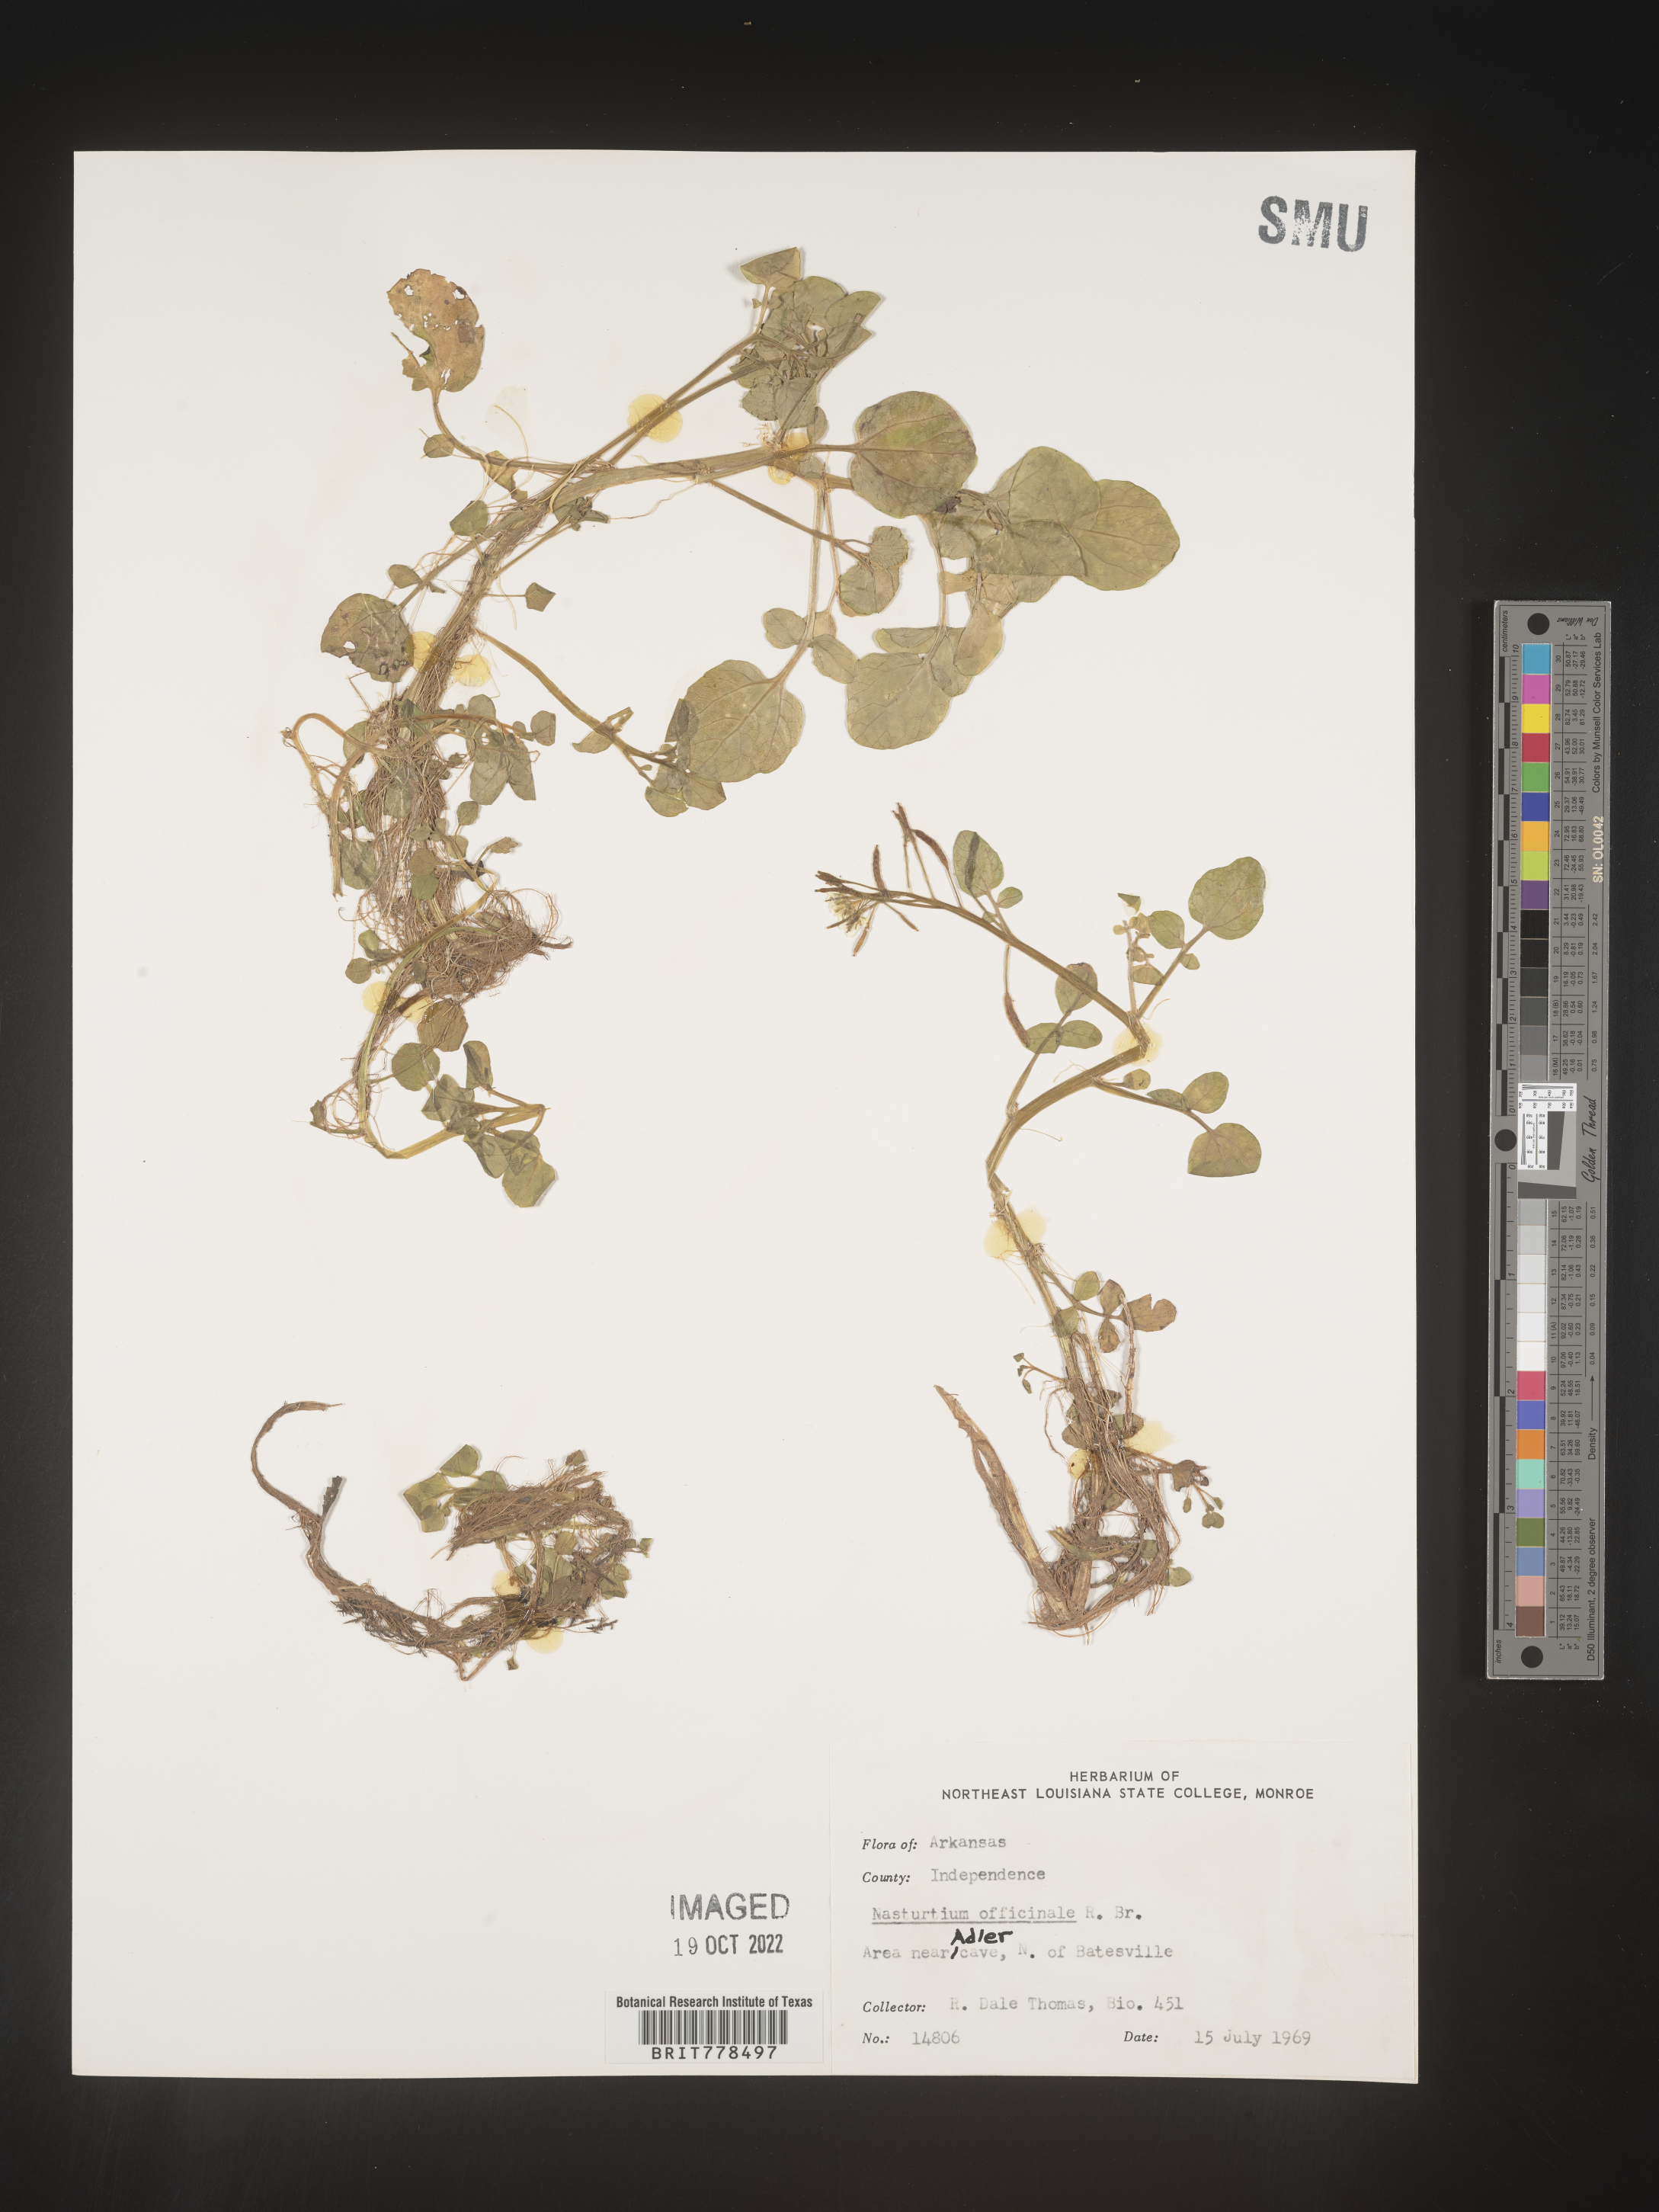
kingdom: Plantae
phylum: Tracheophyta
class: Magnoliopsida
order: Brassicales
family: Brassicaceae
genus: Nasturtium
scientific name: Nasturtium officinale
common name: Watercress
